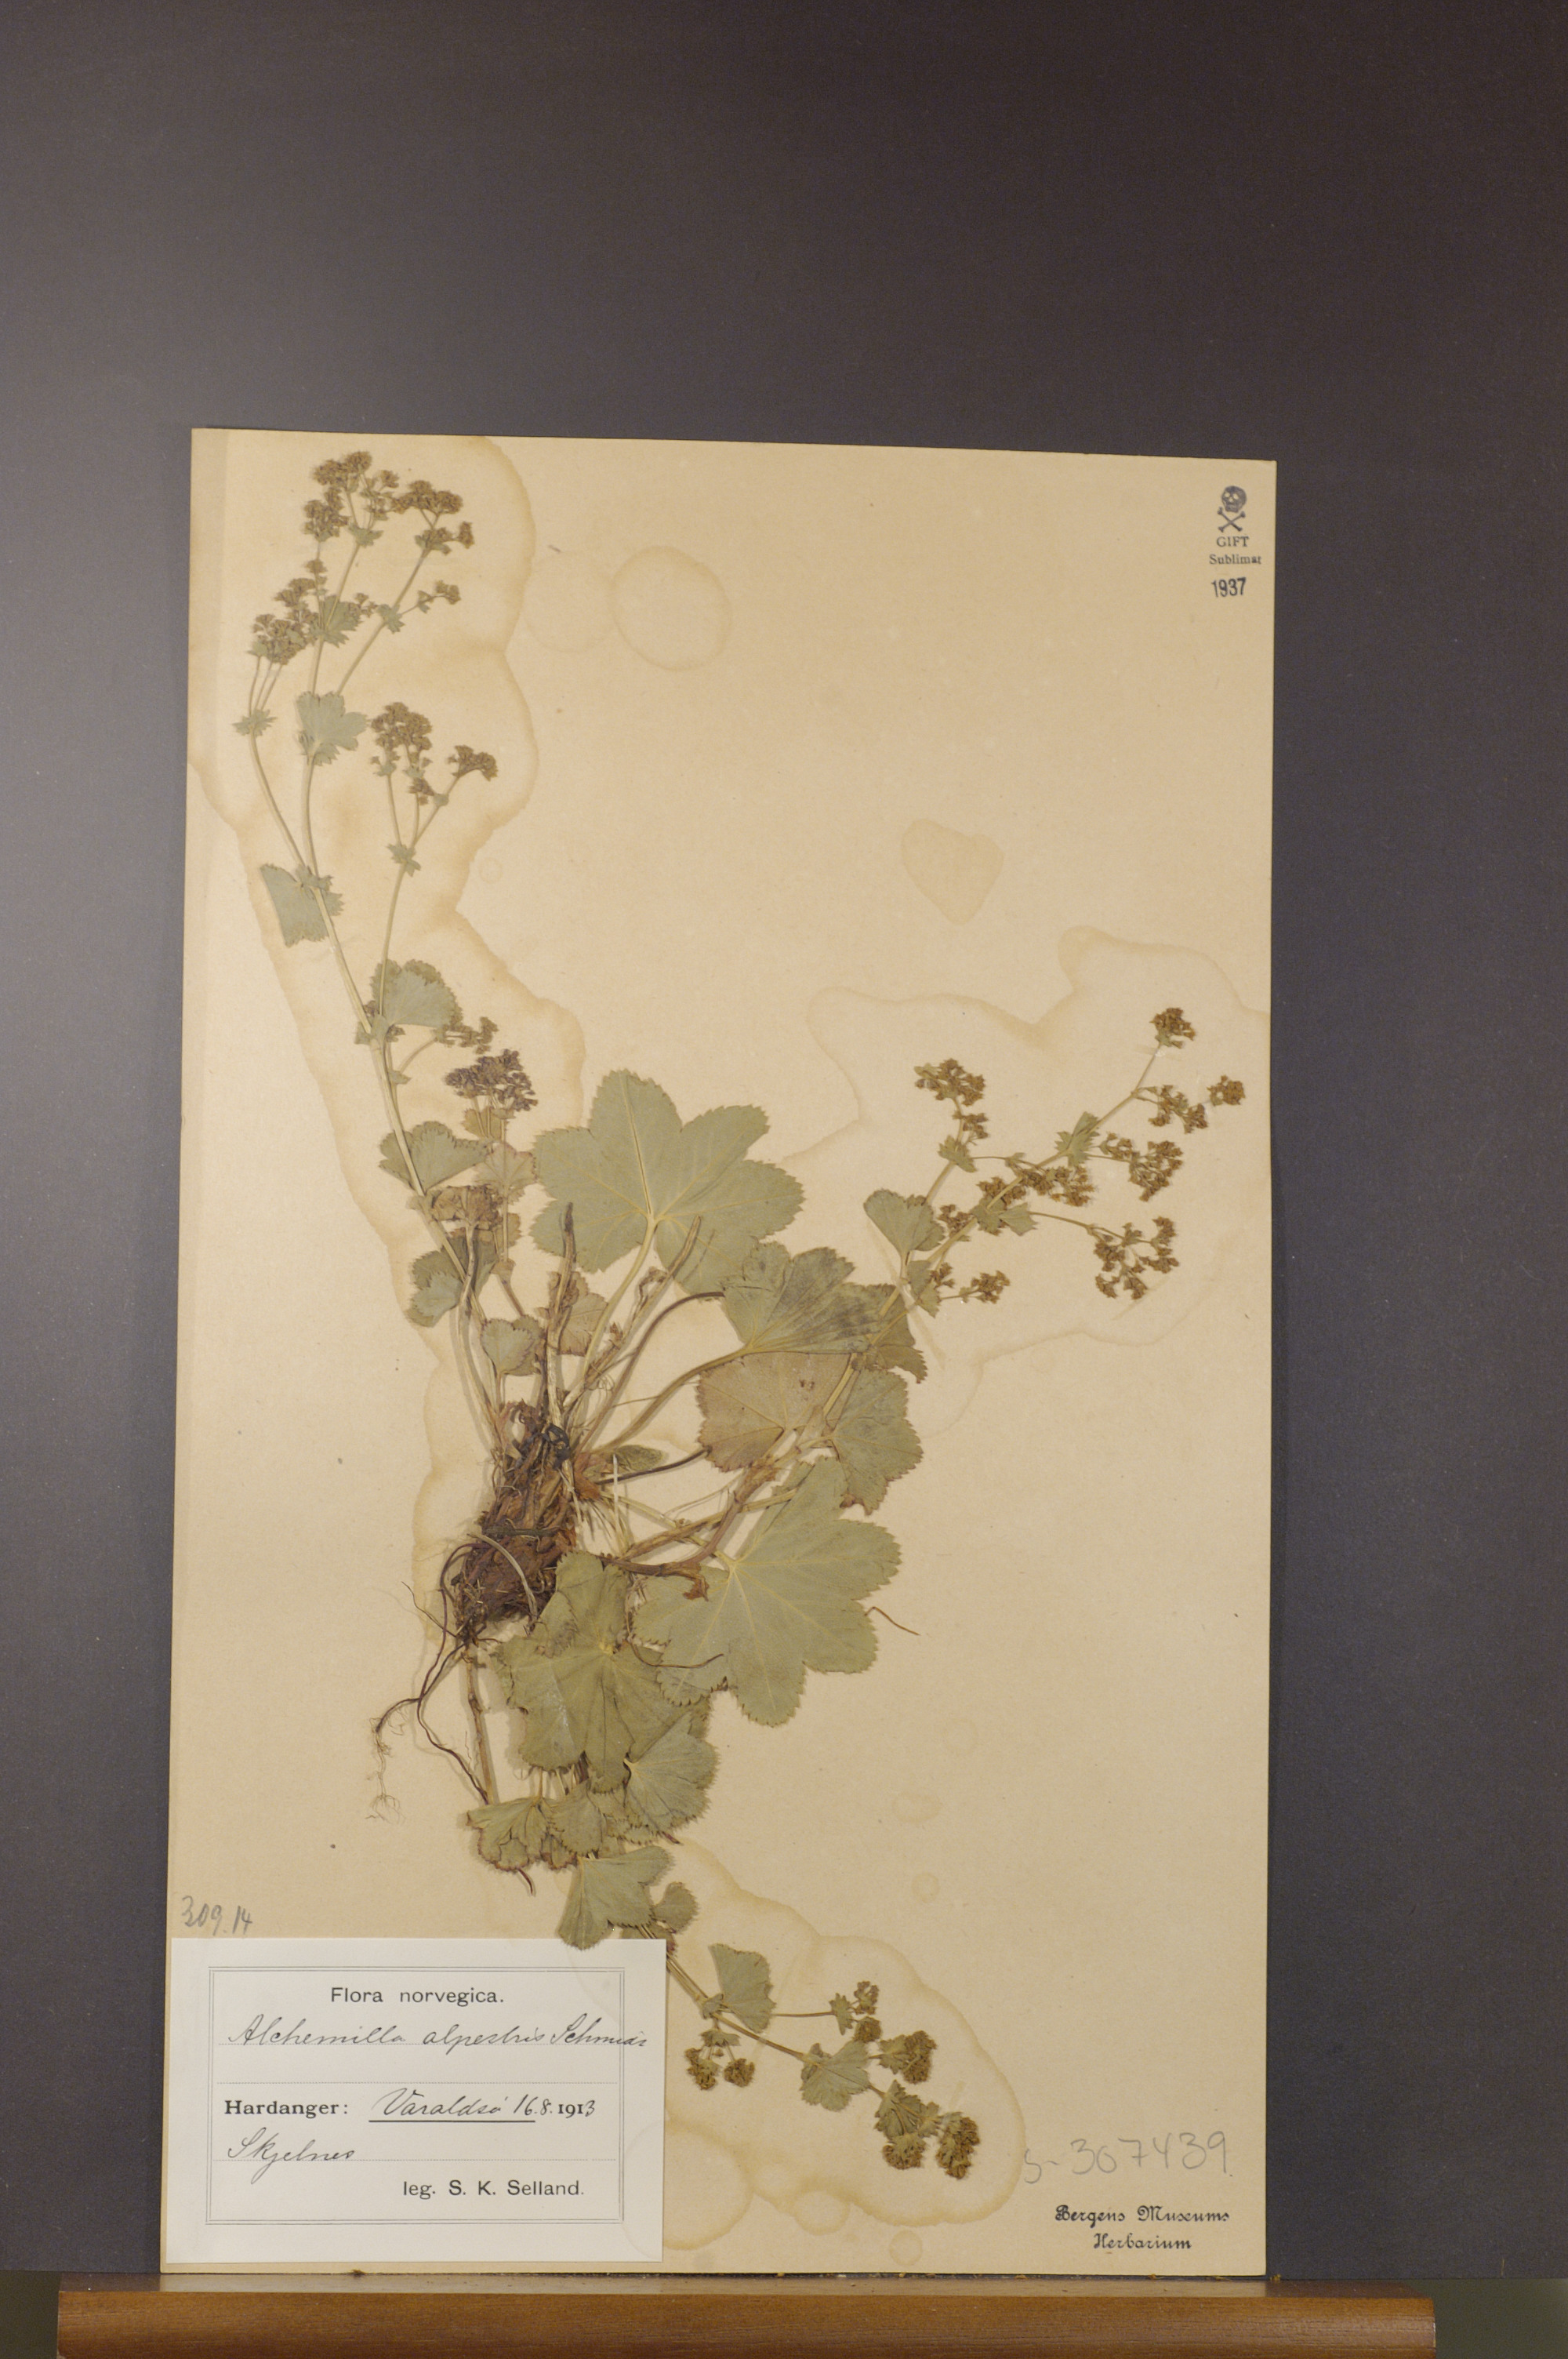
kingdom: Plantae
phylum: Tracheophyta
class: Magnoliopsida
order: Rosales
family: Rosaceae
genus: Alchemilla
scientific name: Alchemilla glabra
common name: Smooth lady's-mantle
